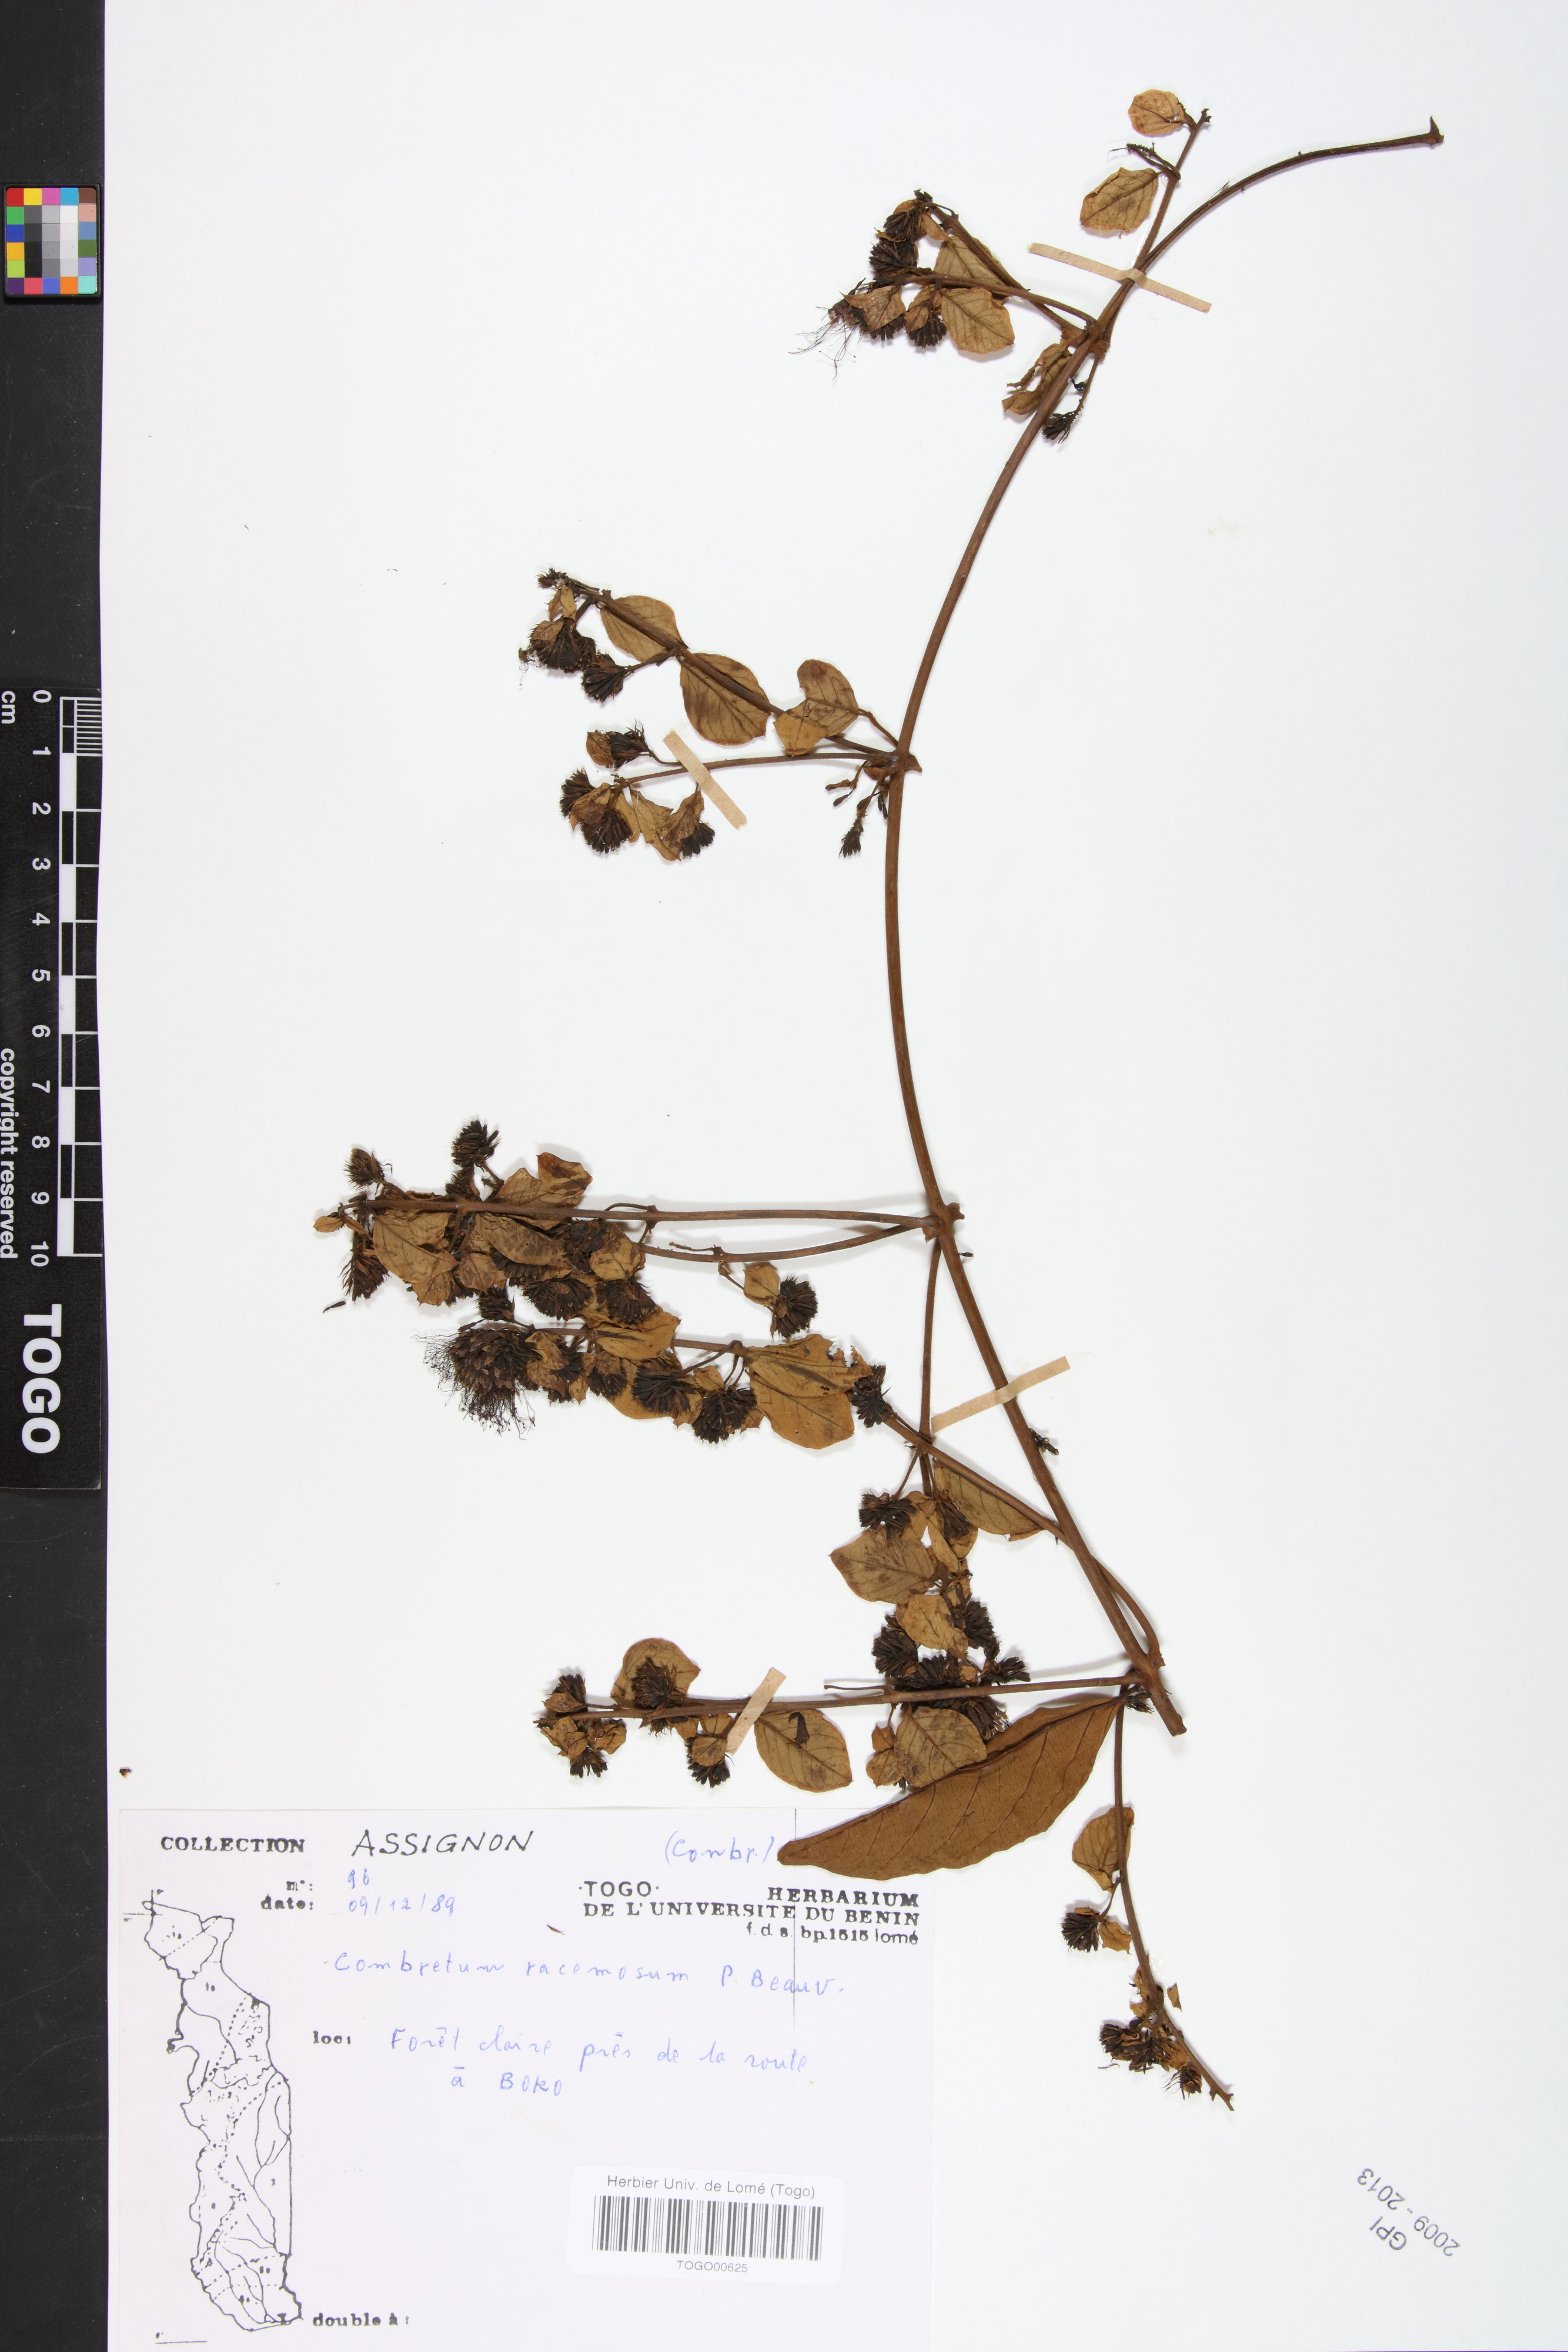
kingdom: Plantae
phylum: Tracheophyta
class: Magnoliopsida
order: Myrtales
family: Combretaceae
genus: Combretum
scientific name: Combretum racemosum
